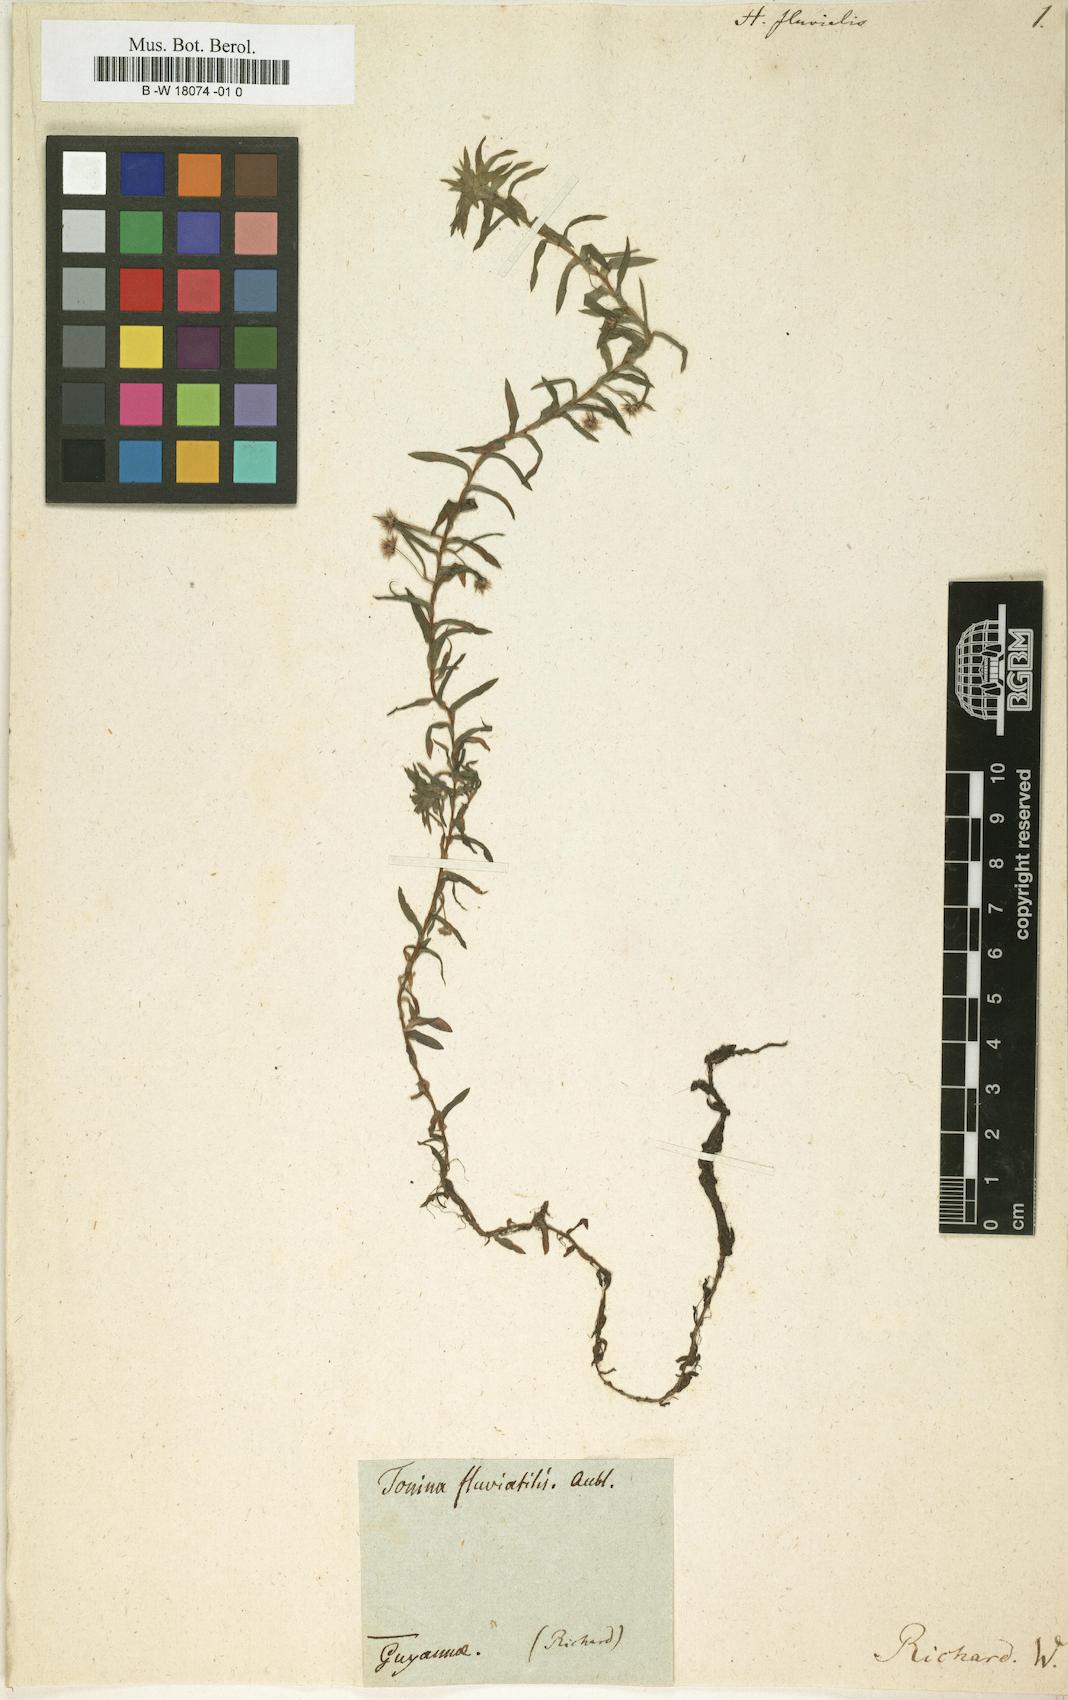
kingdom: Plantae
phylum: Tracheophyta
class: Liliopsida
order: Poales
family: Eriocaulaceae
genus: Paepalanthus
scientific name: Paepalanthus fluviatilis
